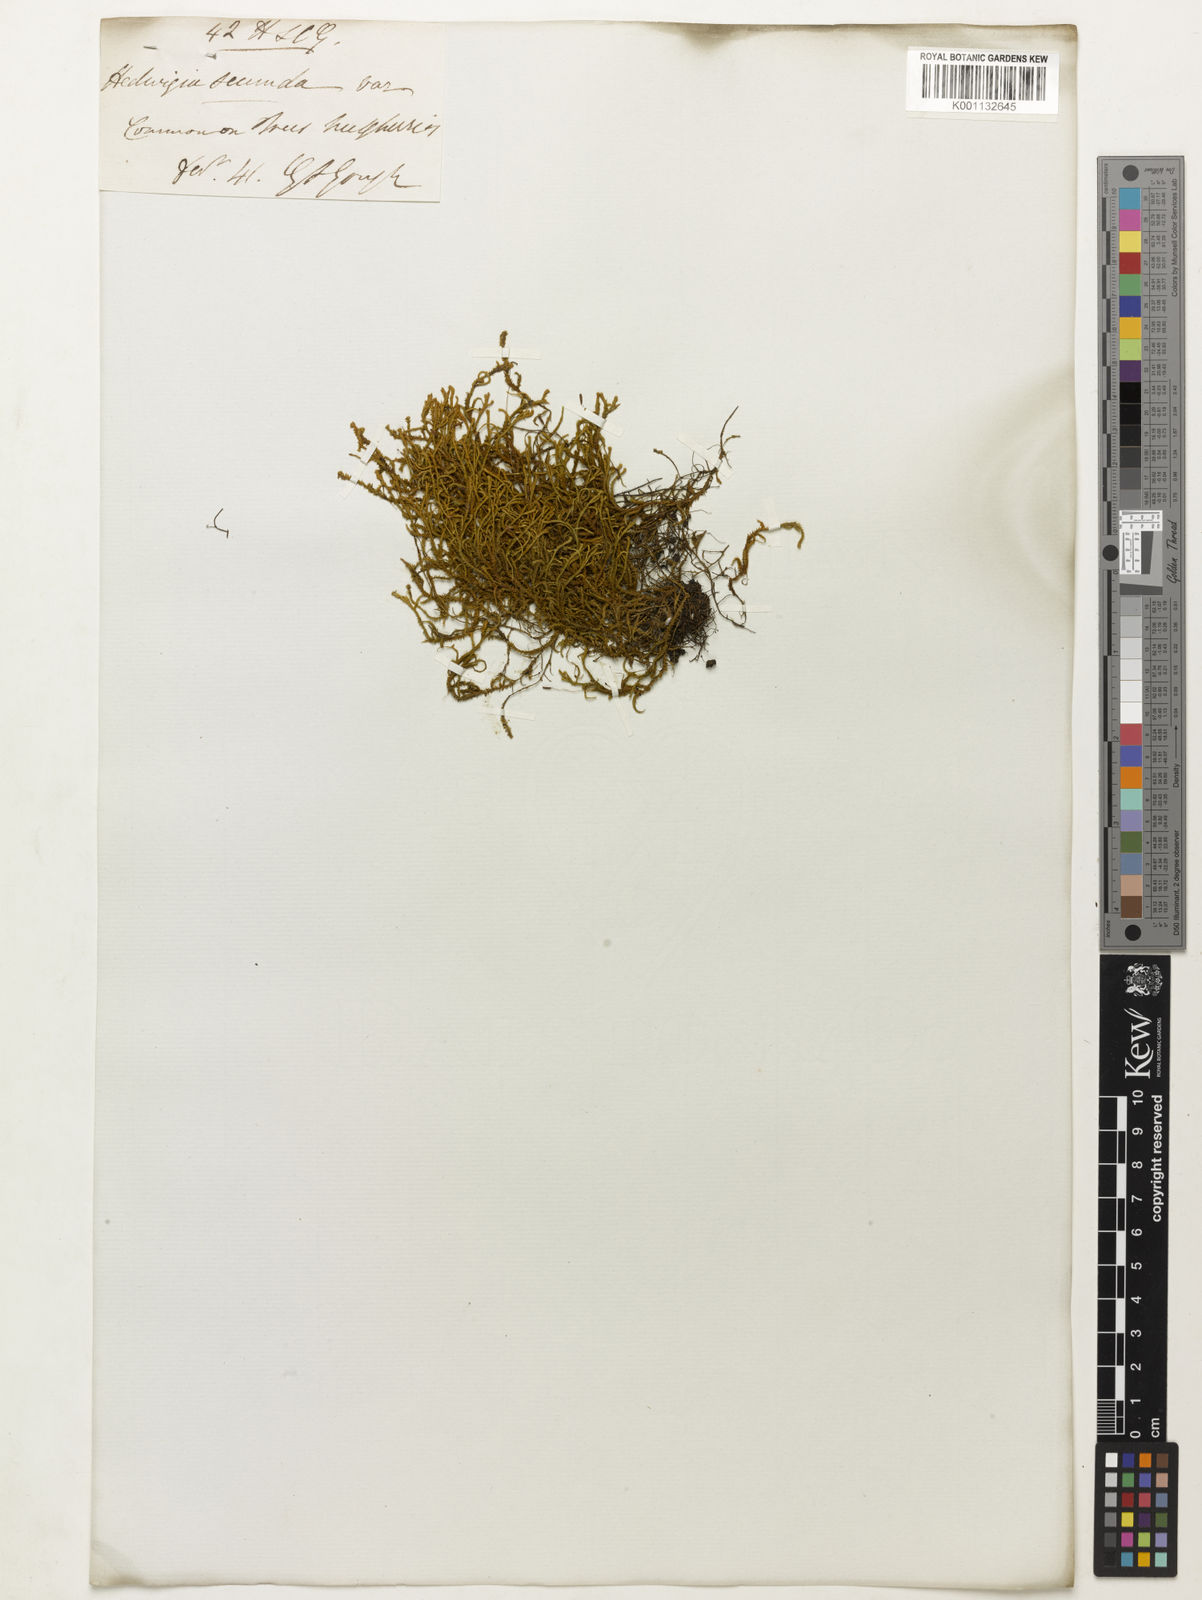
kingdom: Plantae
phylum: Bryophyta
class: Bryopsida
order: Hedwigiales
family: Hedwigiaceae
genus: Hedwigia
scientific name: Hedwigia
